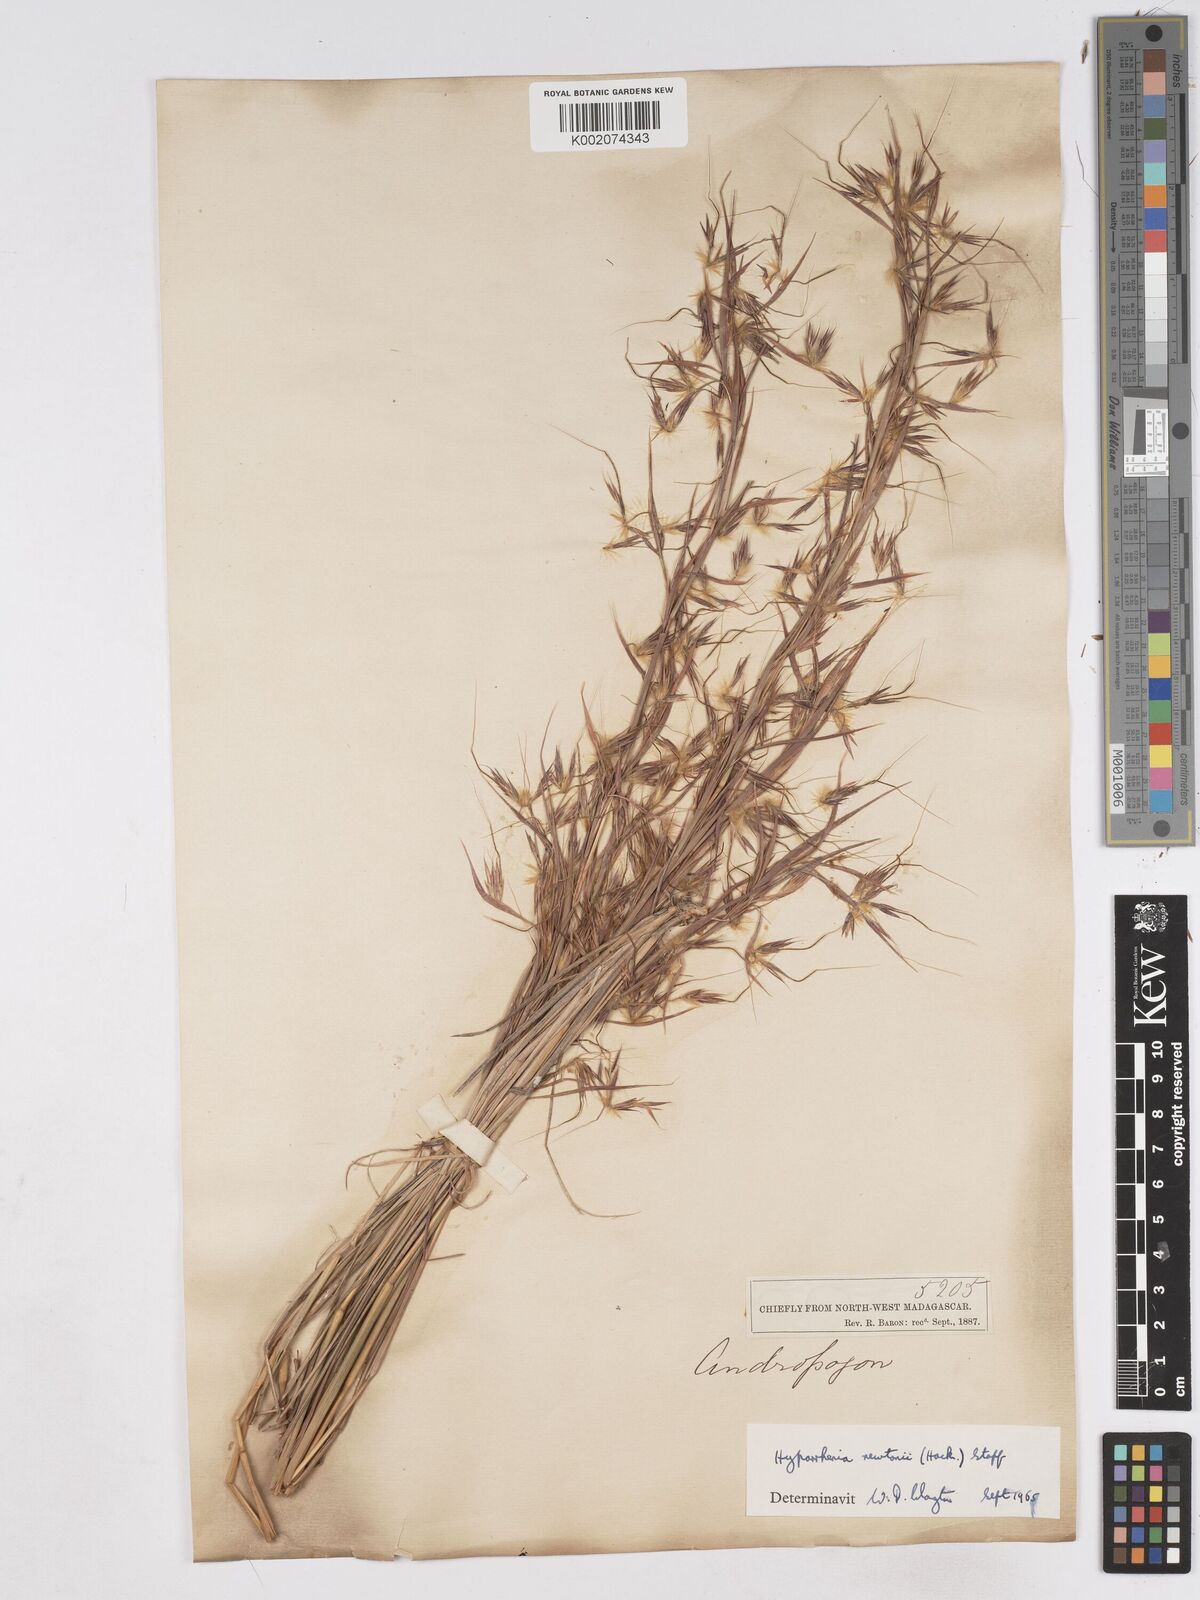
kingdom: Plantae
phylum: Tracheophyta
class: Liliopsida
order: Poales
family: Poaceae
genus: Hyparrhenia
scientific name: Hyparrhenia newtonii
